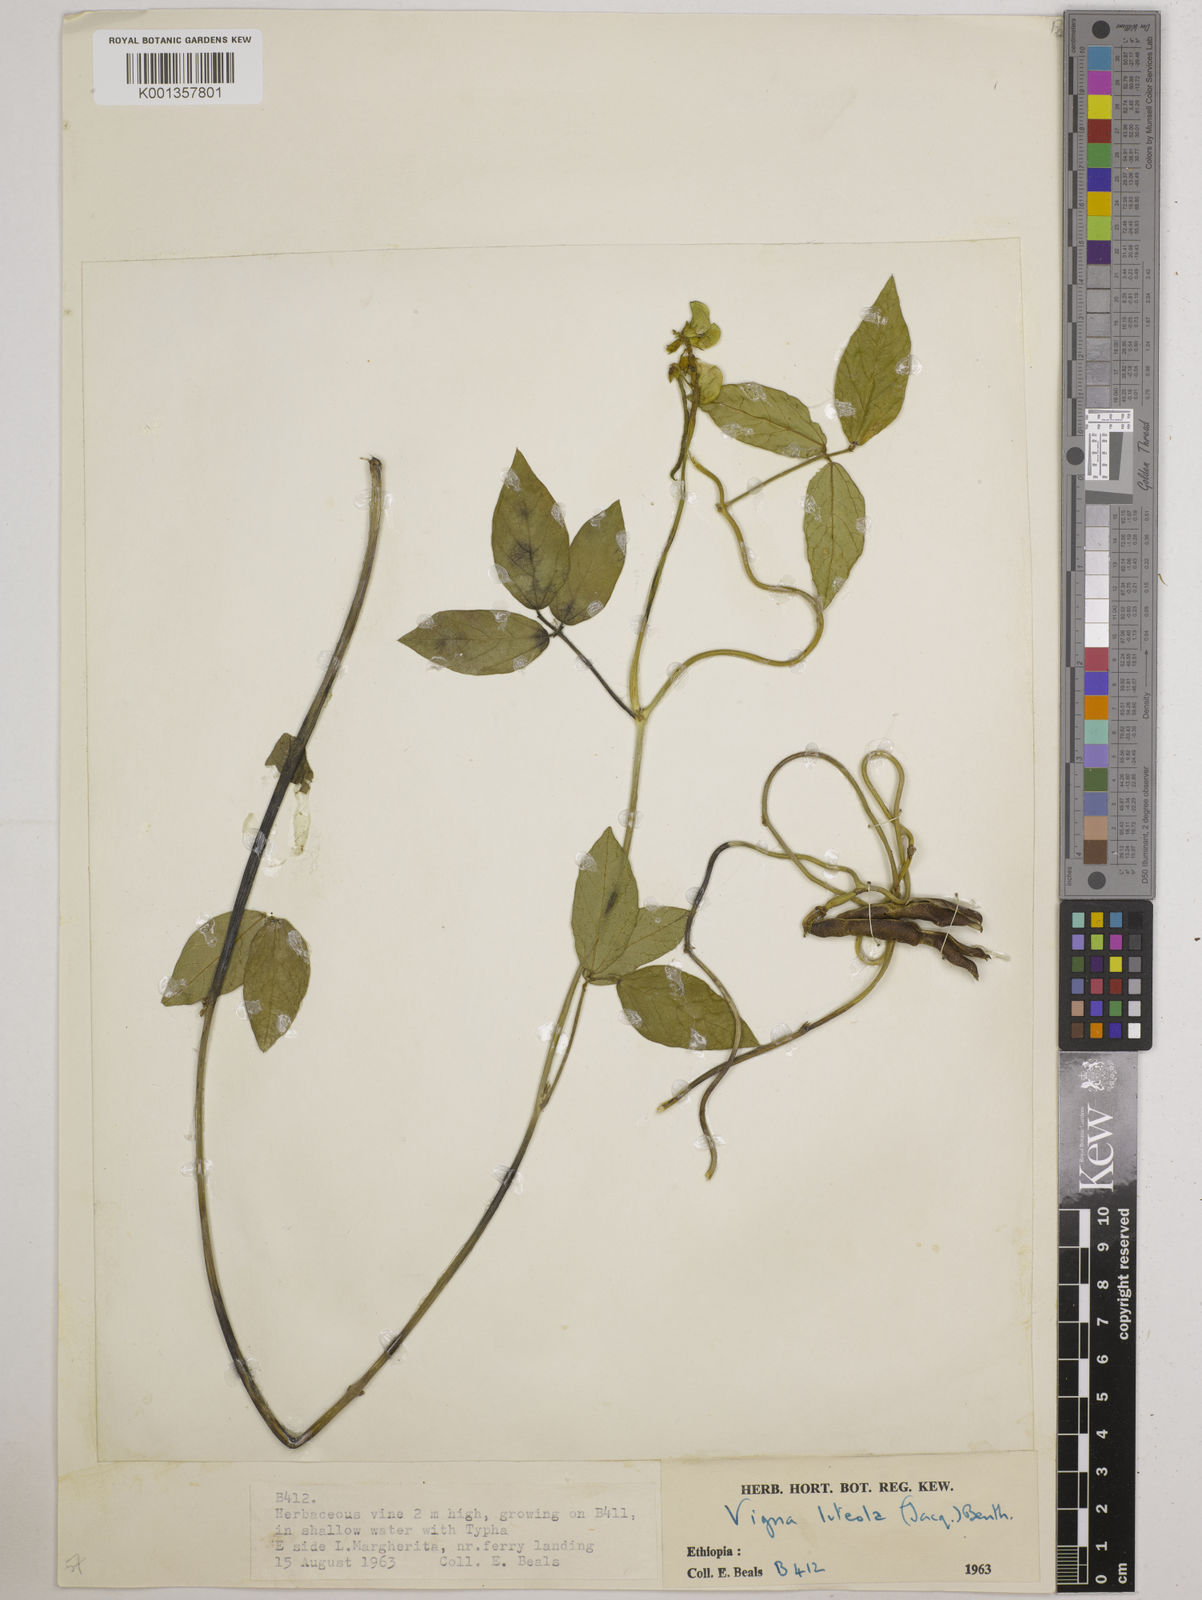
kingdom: Plantae
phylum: Tracheophyta
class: Magnoliopsida
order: Fabales
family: Fabaceae
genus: Vigna
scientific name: Vigna luteola
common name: Hairypod cowpea
